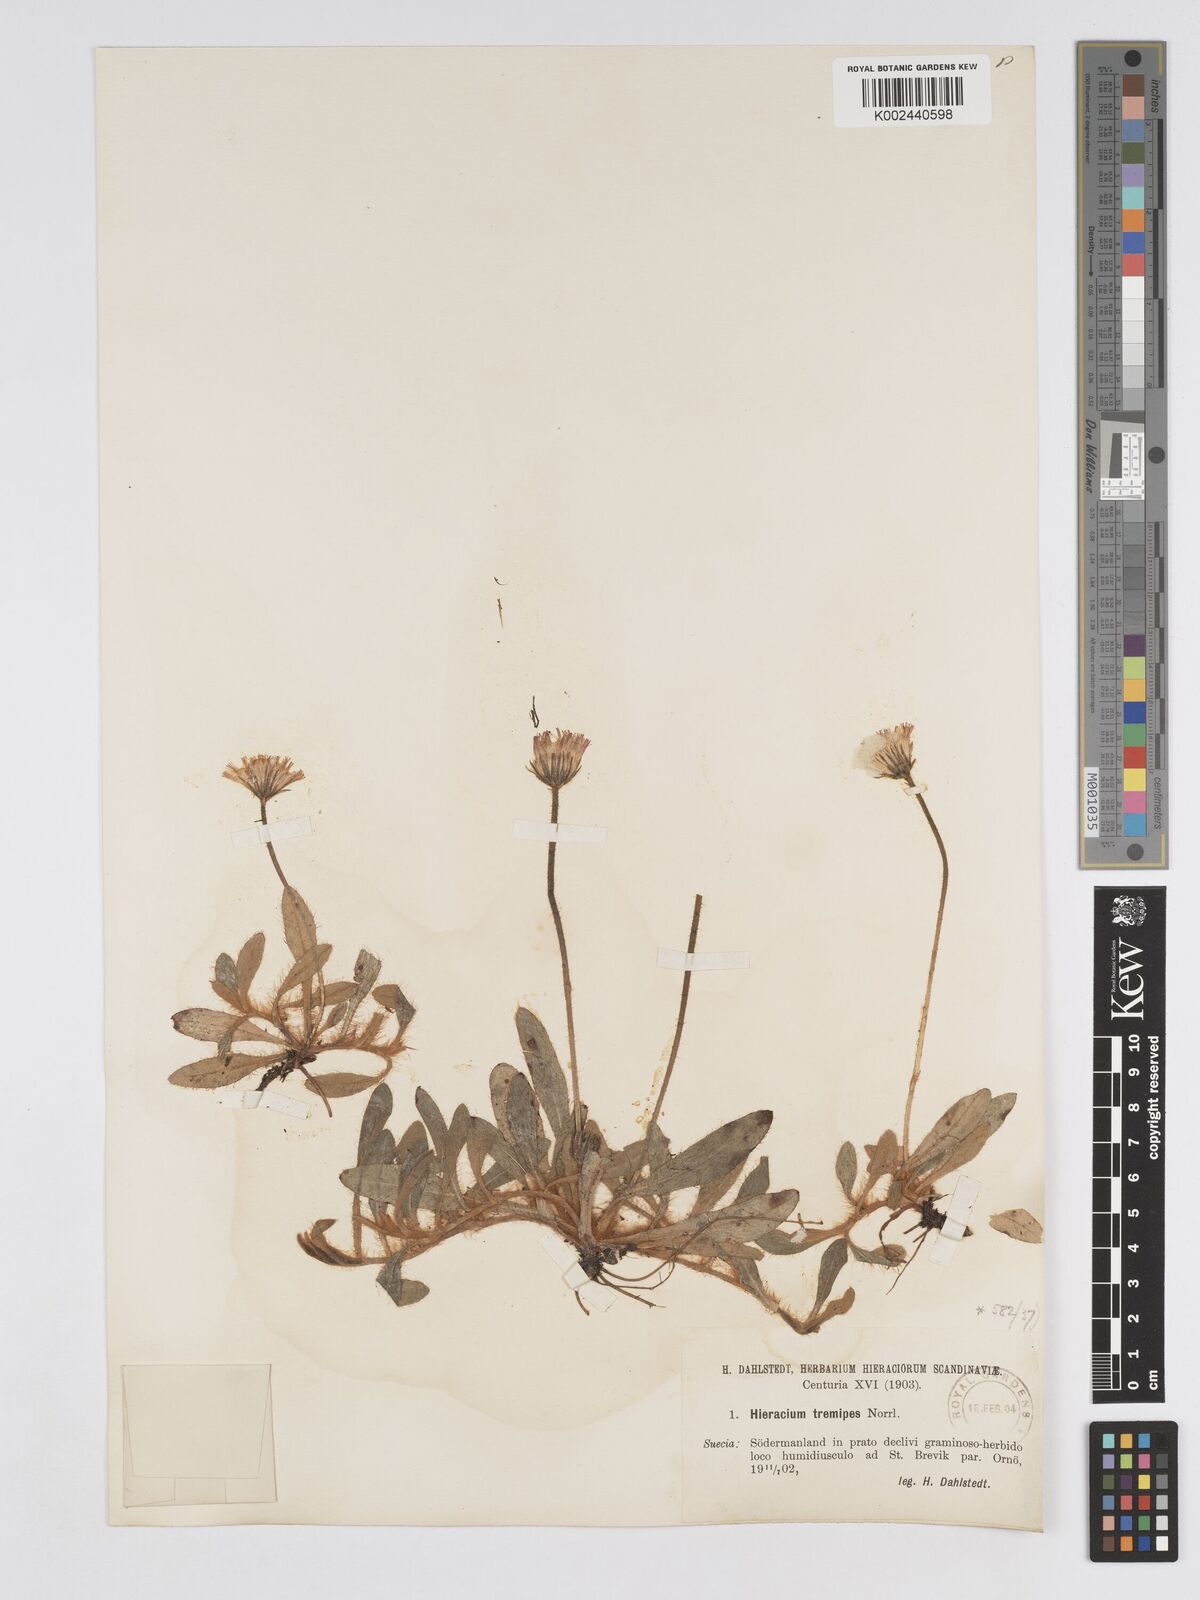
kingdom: Plantae
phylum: Tracheophyta
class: Magnoliopsida
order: Asterales
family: Asteraceae
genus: Pilosella
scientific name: Pilosella longisquama
